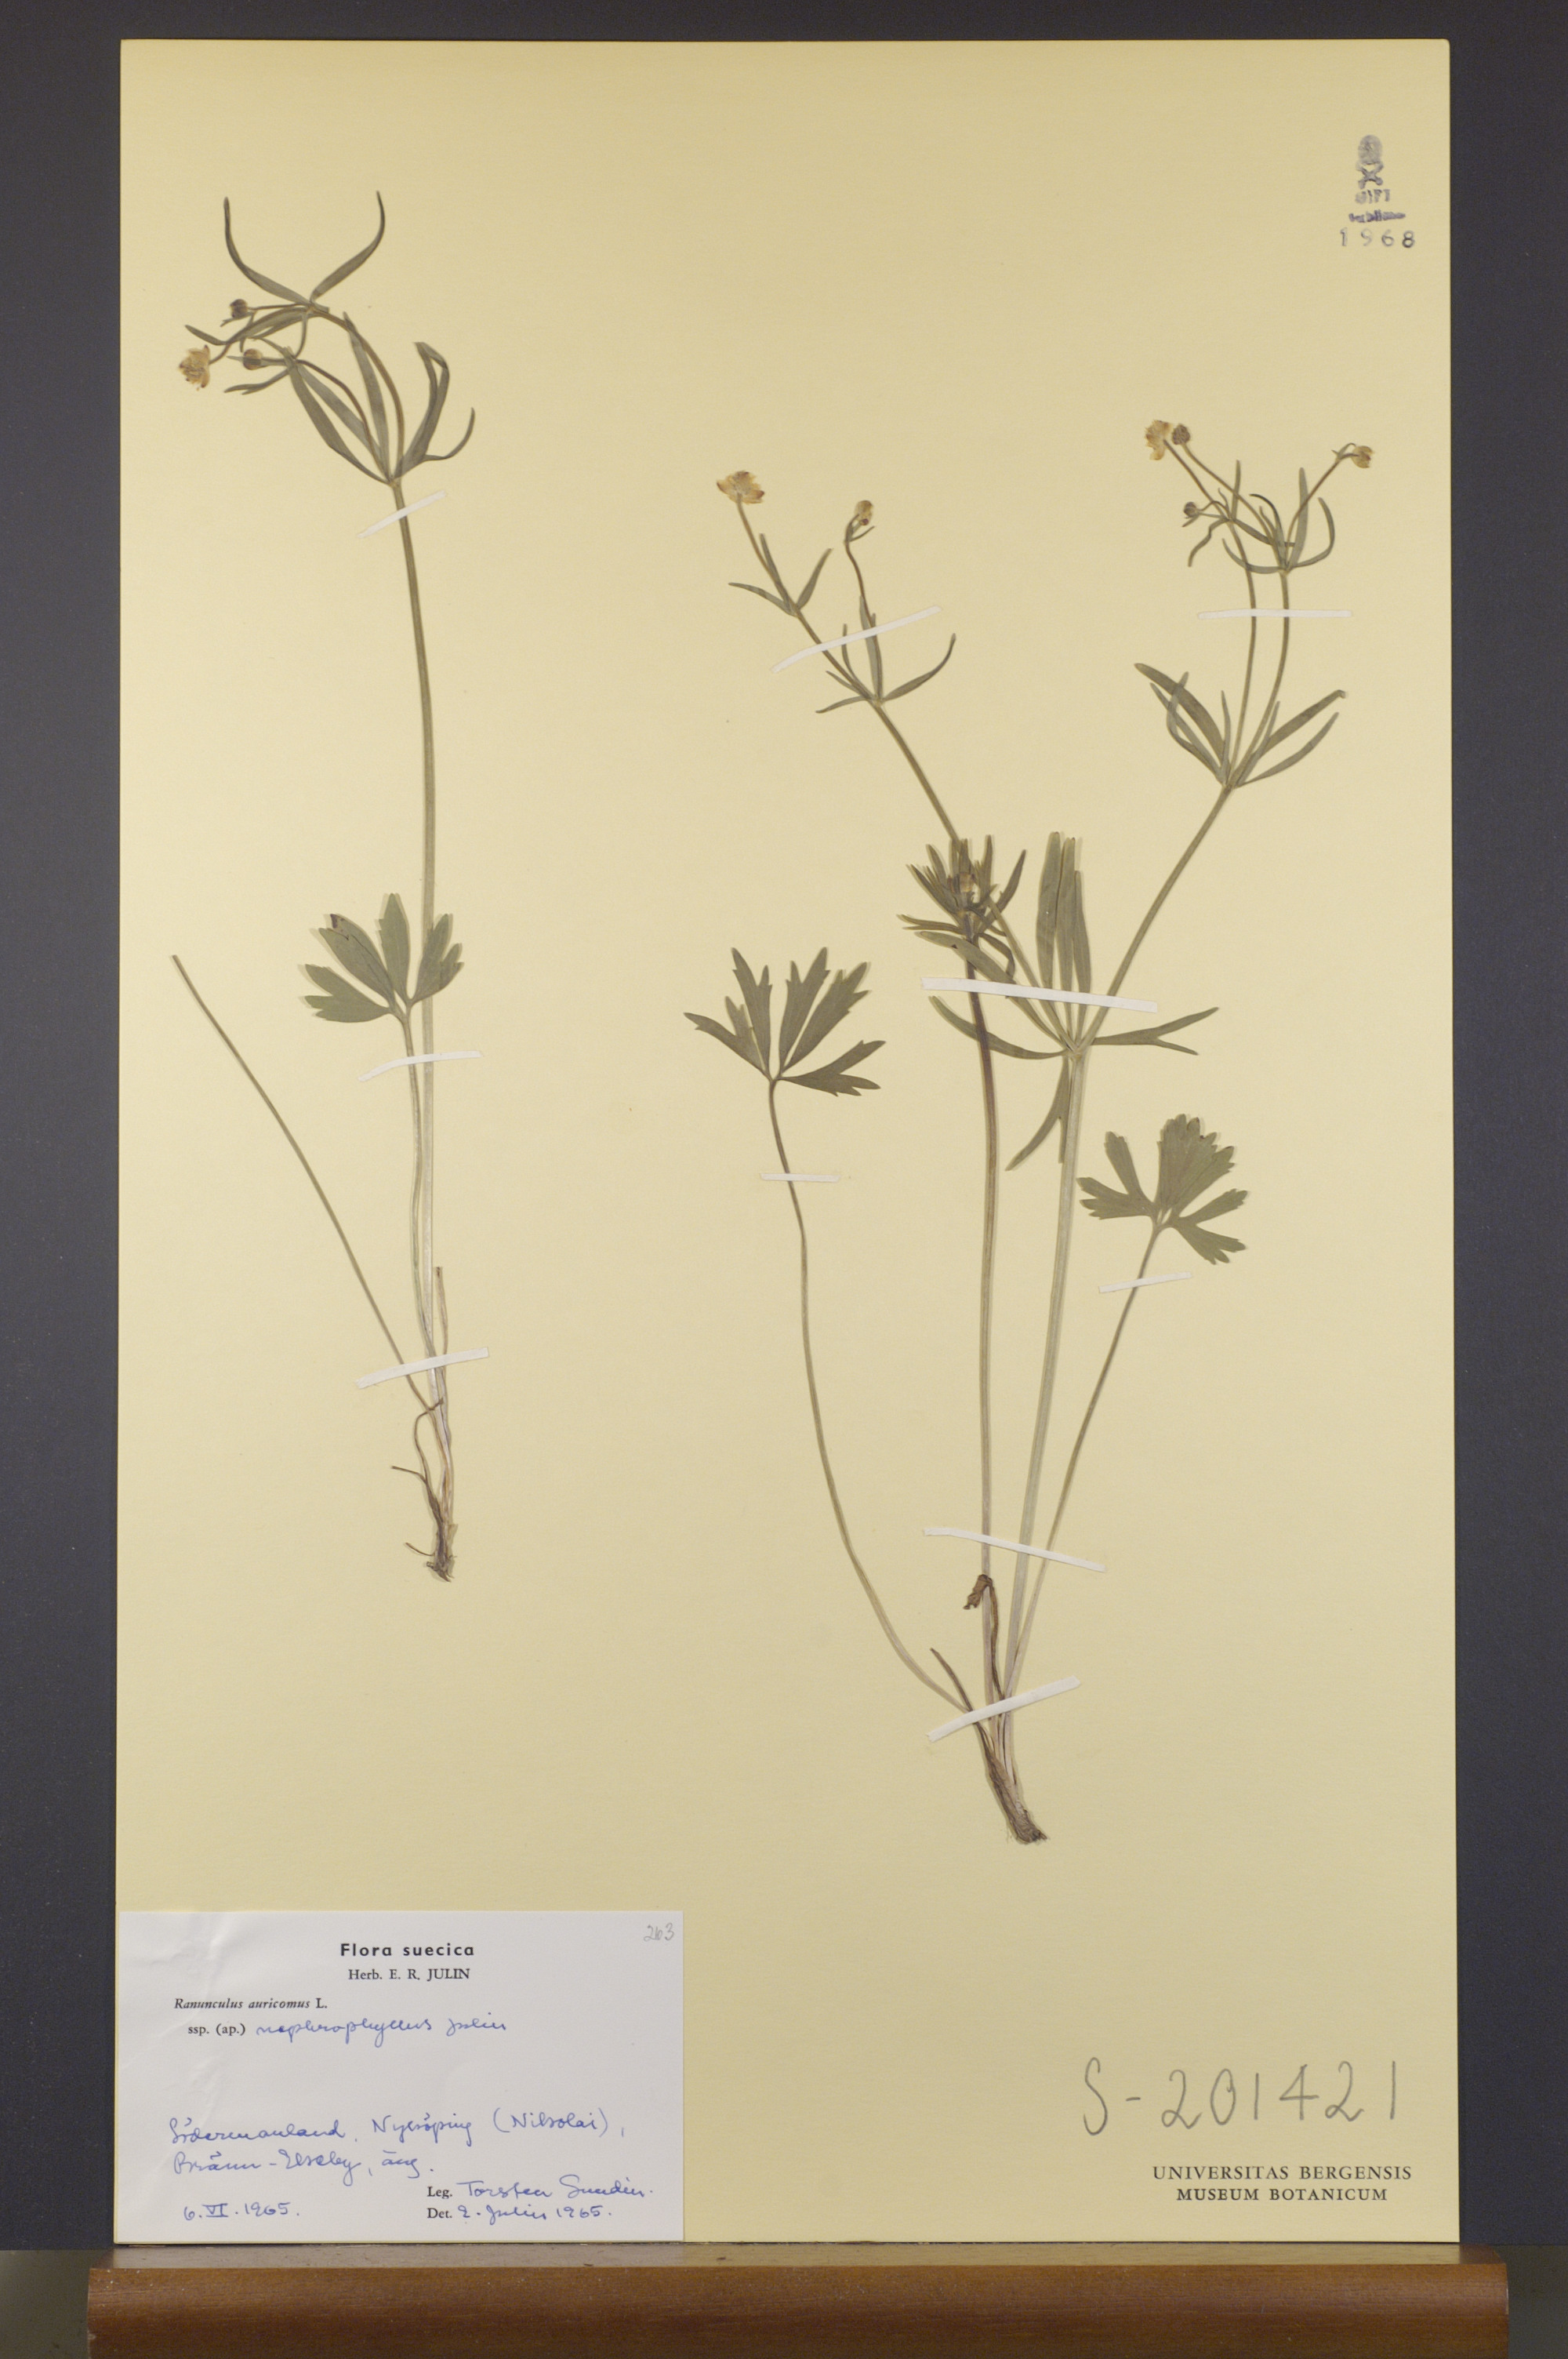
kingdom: Plantae
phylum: Tracheophyta
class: Magnoliopsida
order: Ranunculales
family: Ranunculaceae
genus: Ranunculus
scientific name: Ranunculus nephrophyllus
